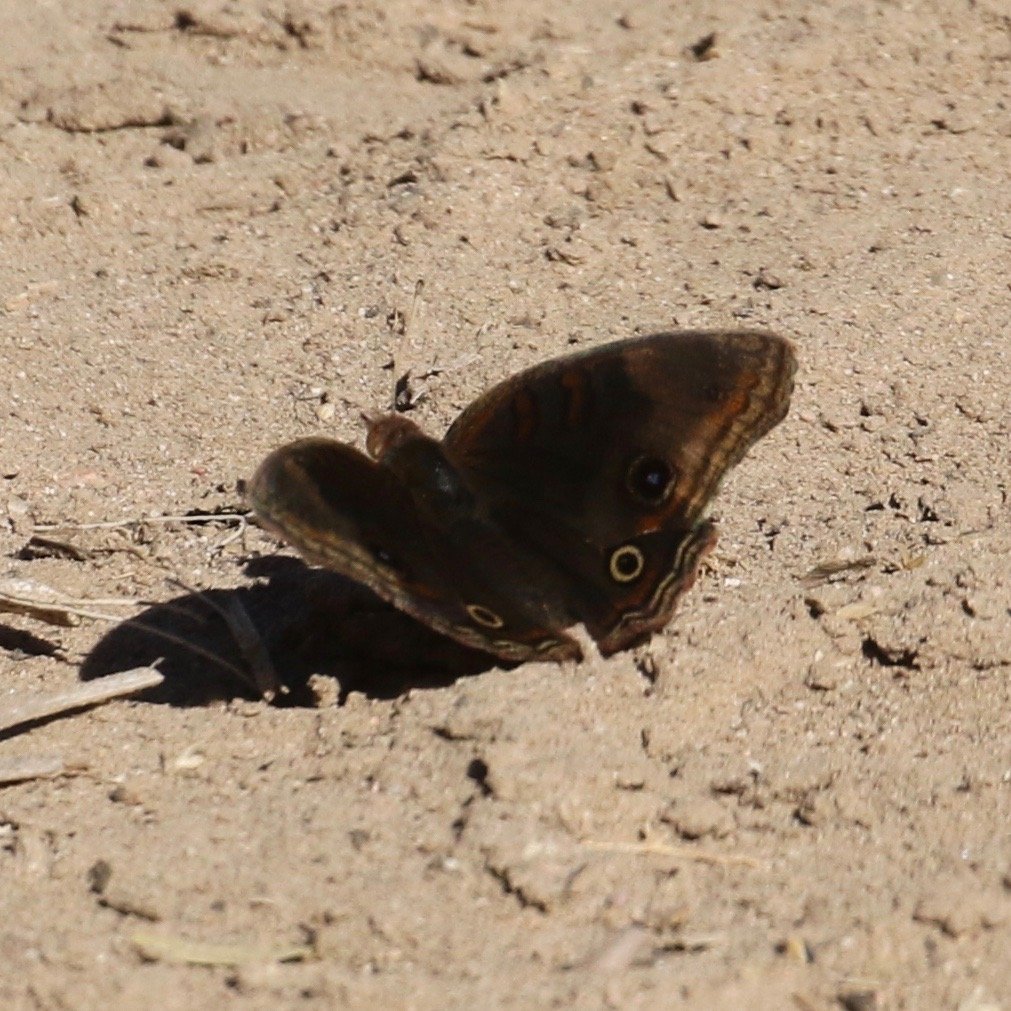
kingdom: Animalia
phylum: Arthropoda
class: Insecta
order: Lepidoptera
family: Nymphalidae
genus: Junonia
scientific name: Junonia lavinia
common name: Tropical Buckeye
